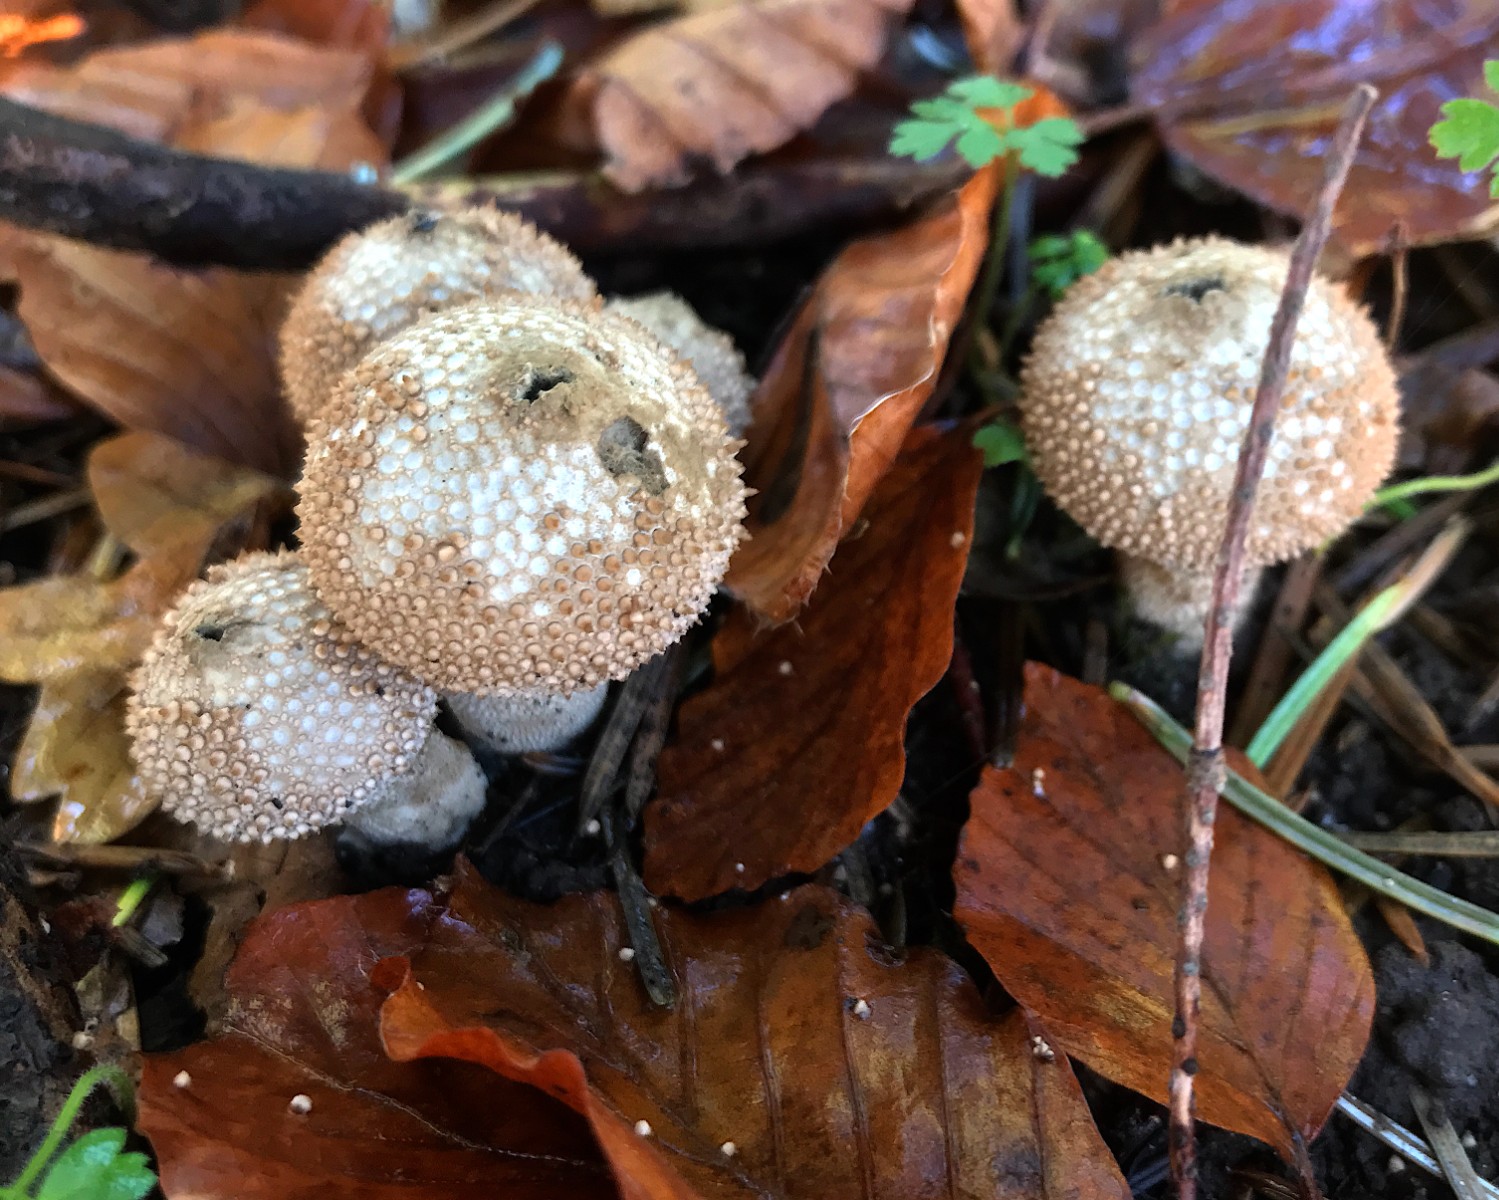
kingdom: Fungi
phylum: Basidiomycota
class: Agaricomycetes
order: Agaricales
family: Lycoperdaceae
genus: Lycoperdon
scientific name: Lycoperdon perlatum
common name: krystal-støvbold
